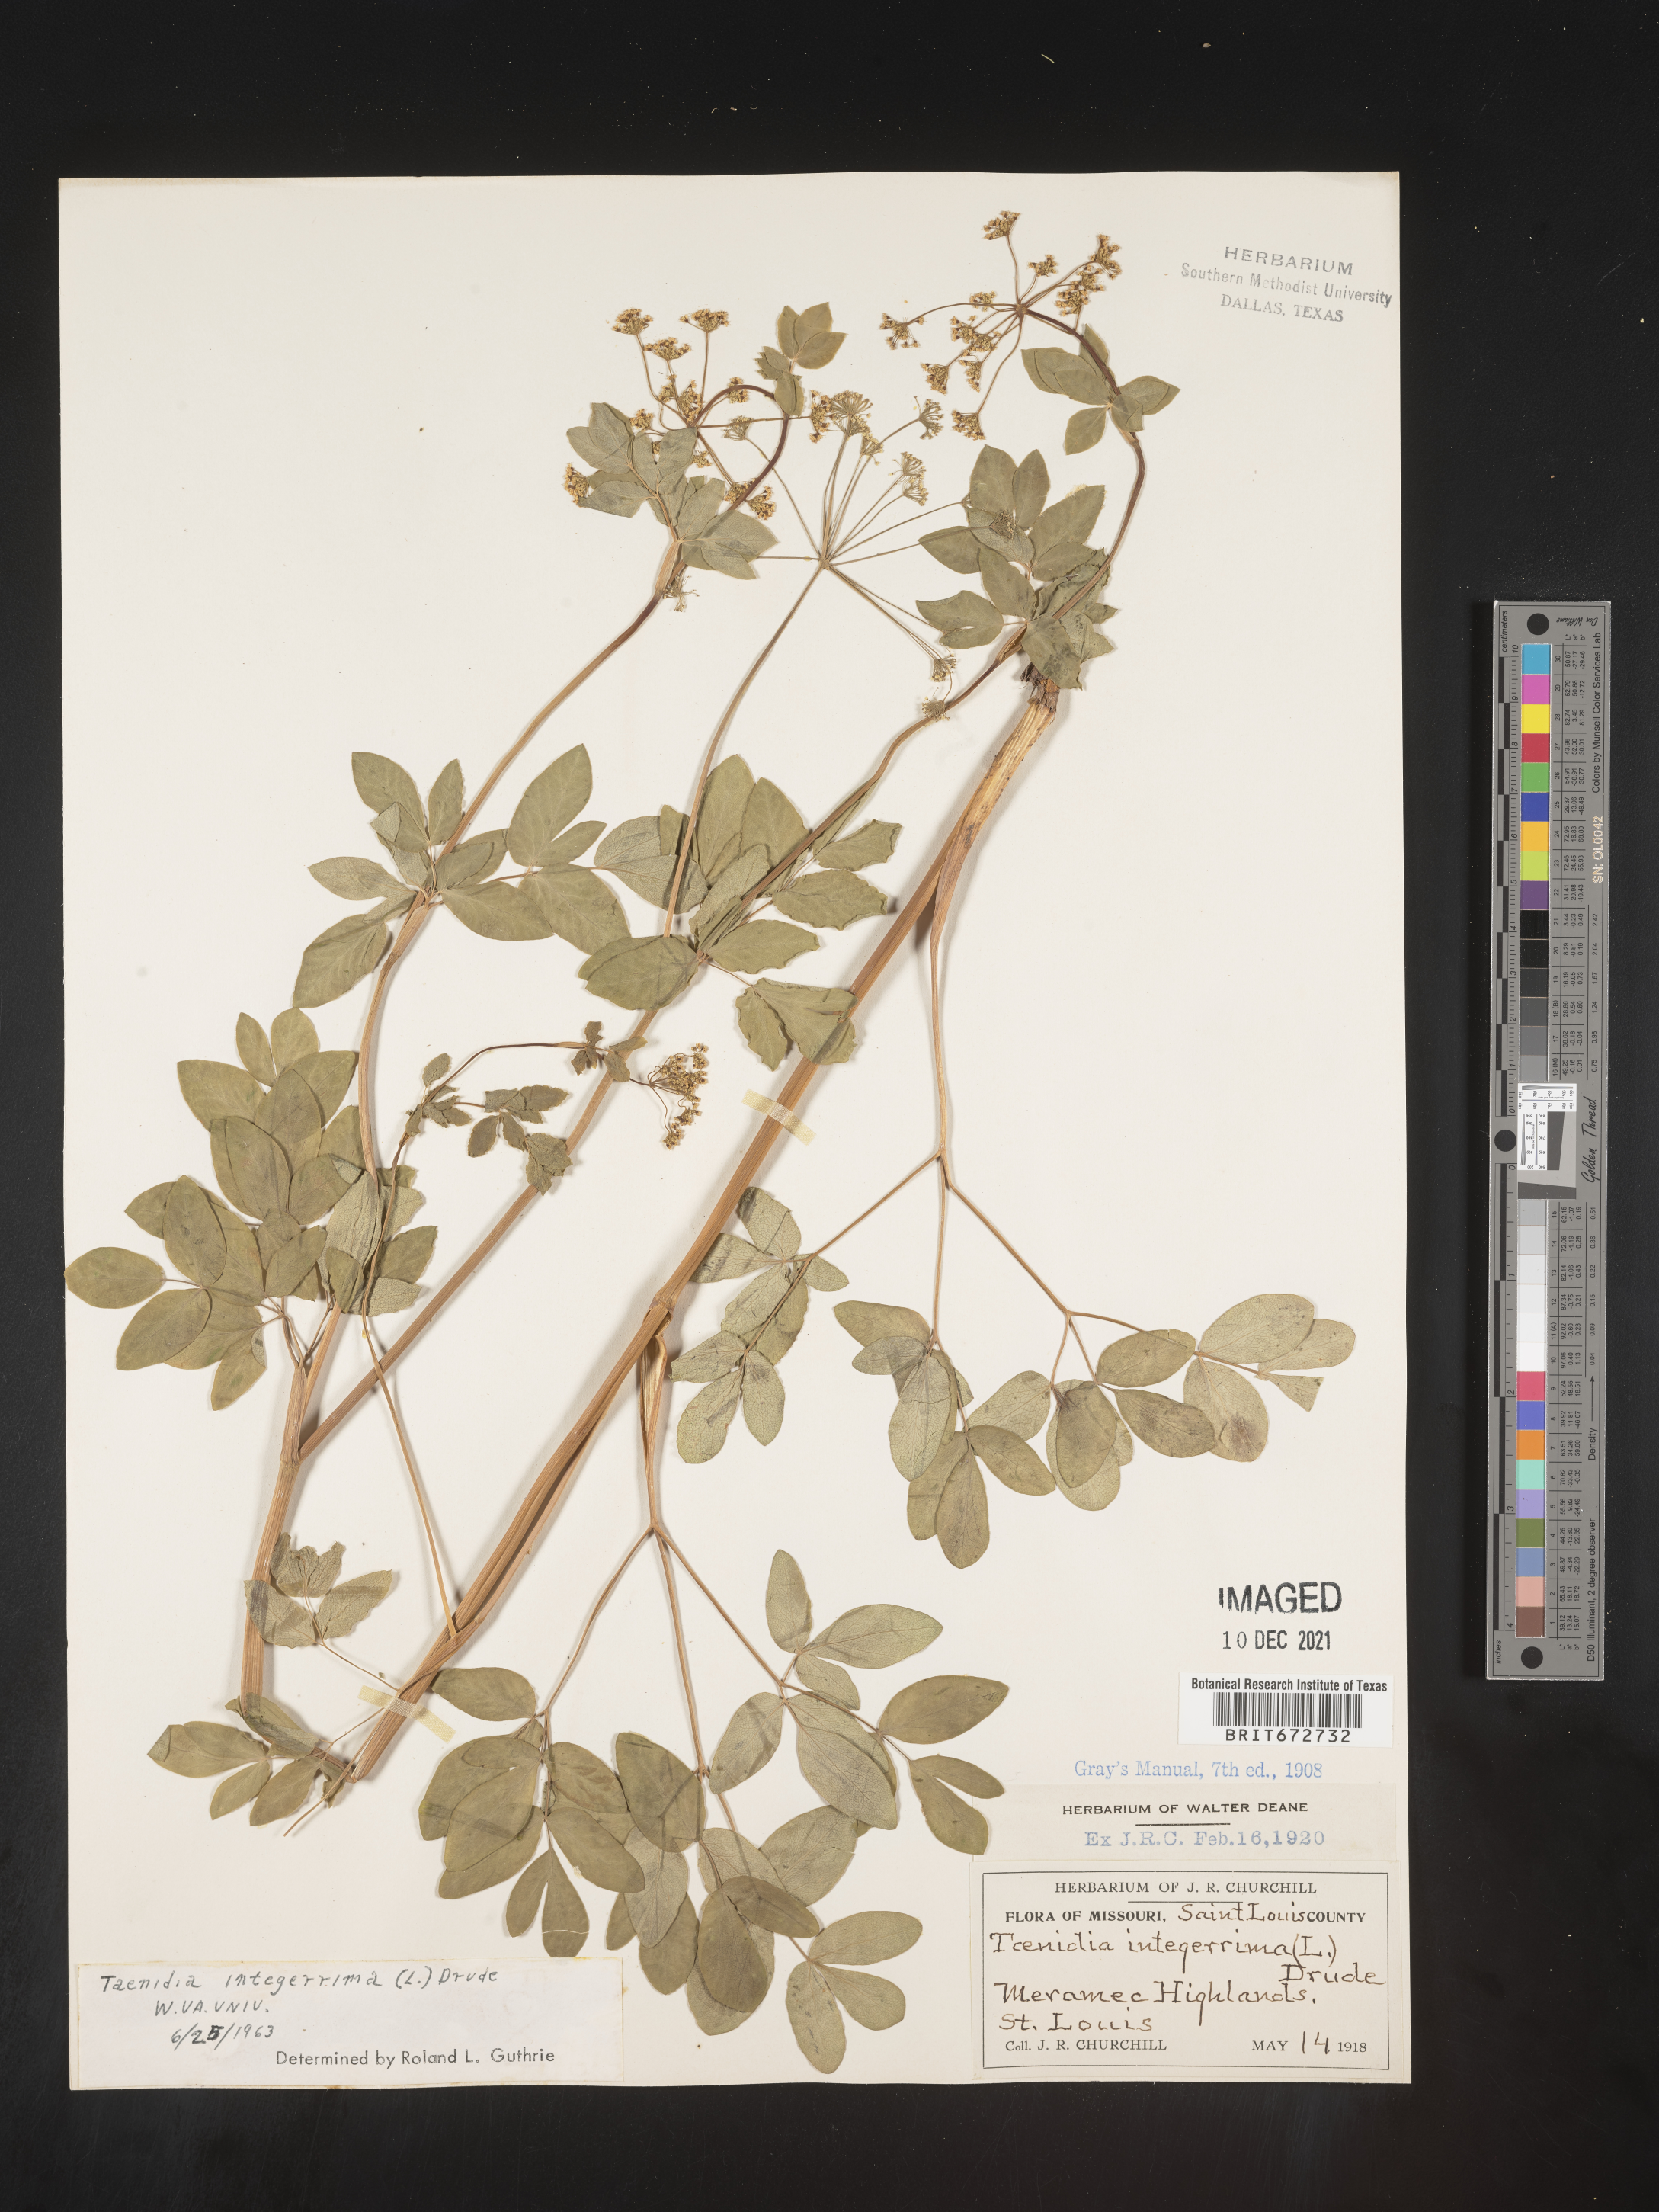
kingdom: Plantae
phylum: Tracheophyta
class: Magnoliopsida
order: Apiales
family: Apiaceae
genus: Taenidia
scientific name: Taenidia
